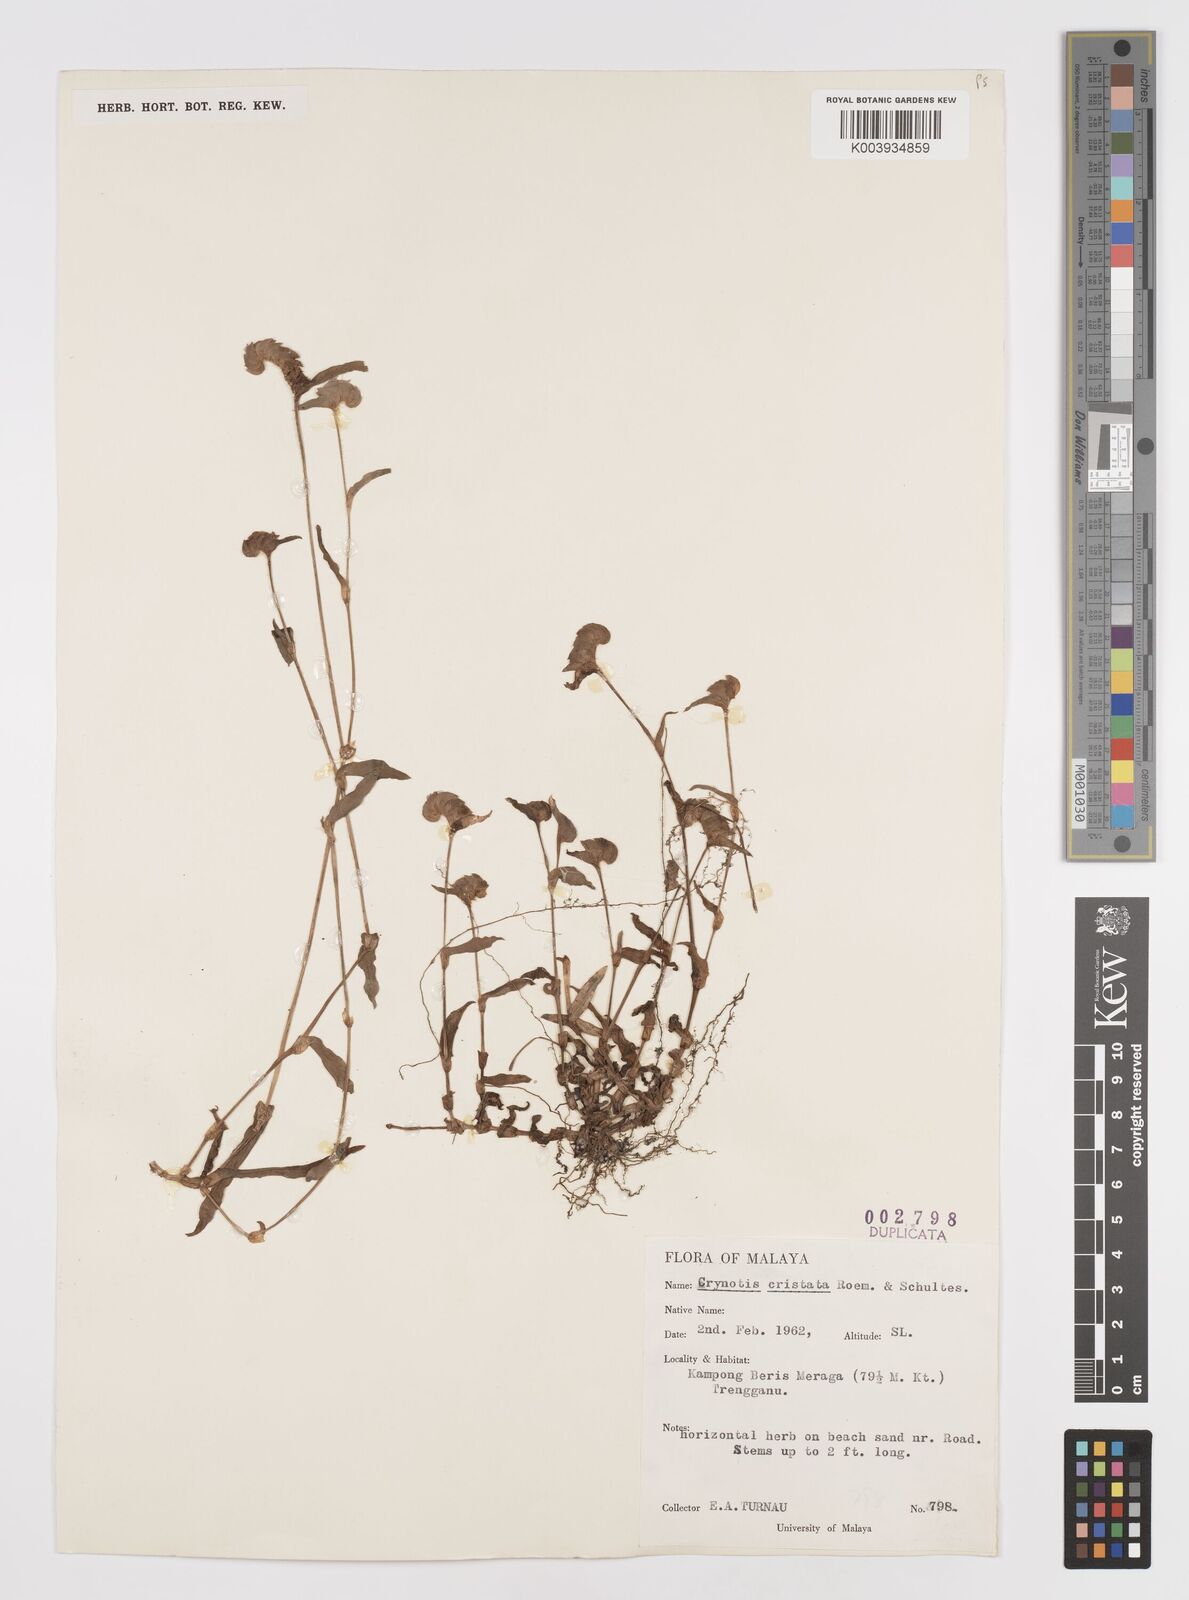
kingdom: Plantae
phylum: Tracheophyta
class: Liliopsida
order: Commelinales
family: Commelinaceae
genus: Cyanotis
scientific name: Cyanotis cristata
